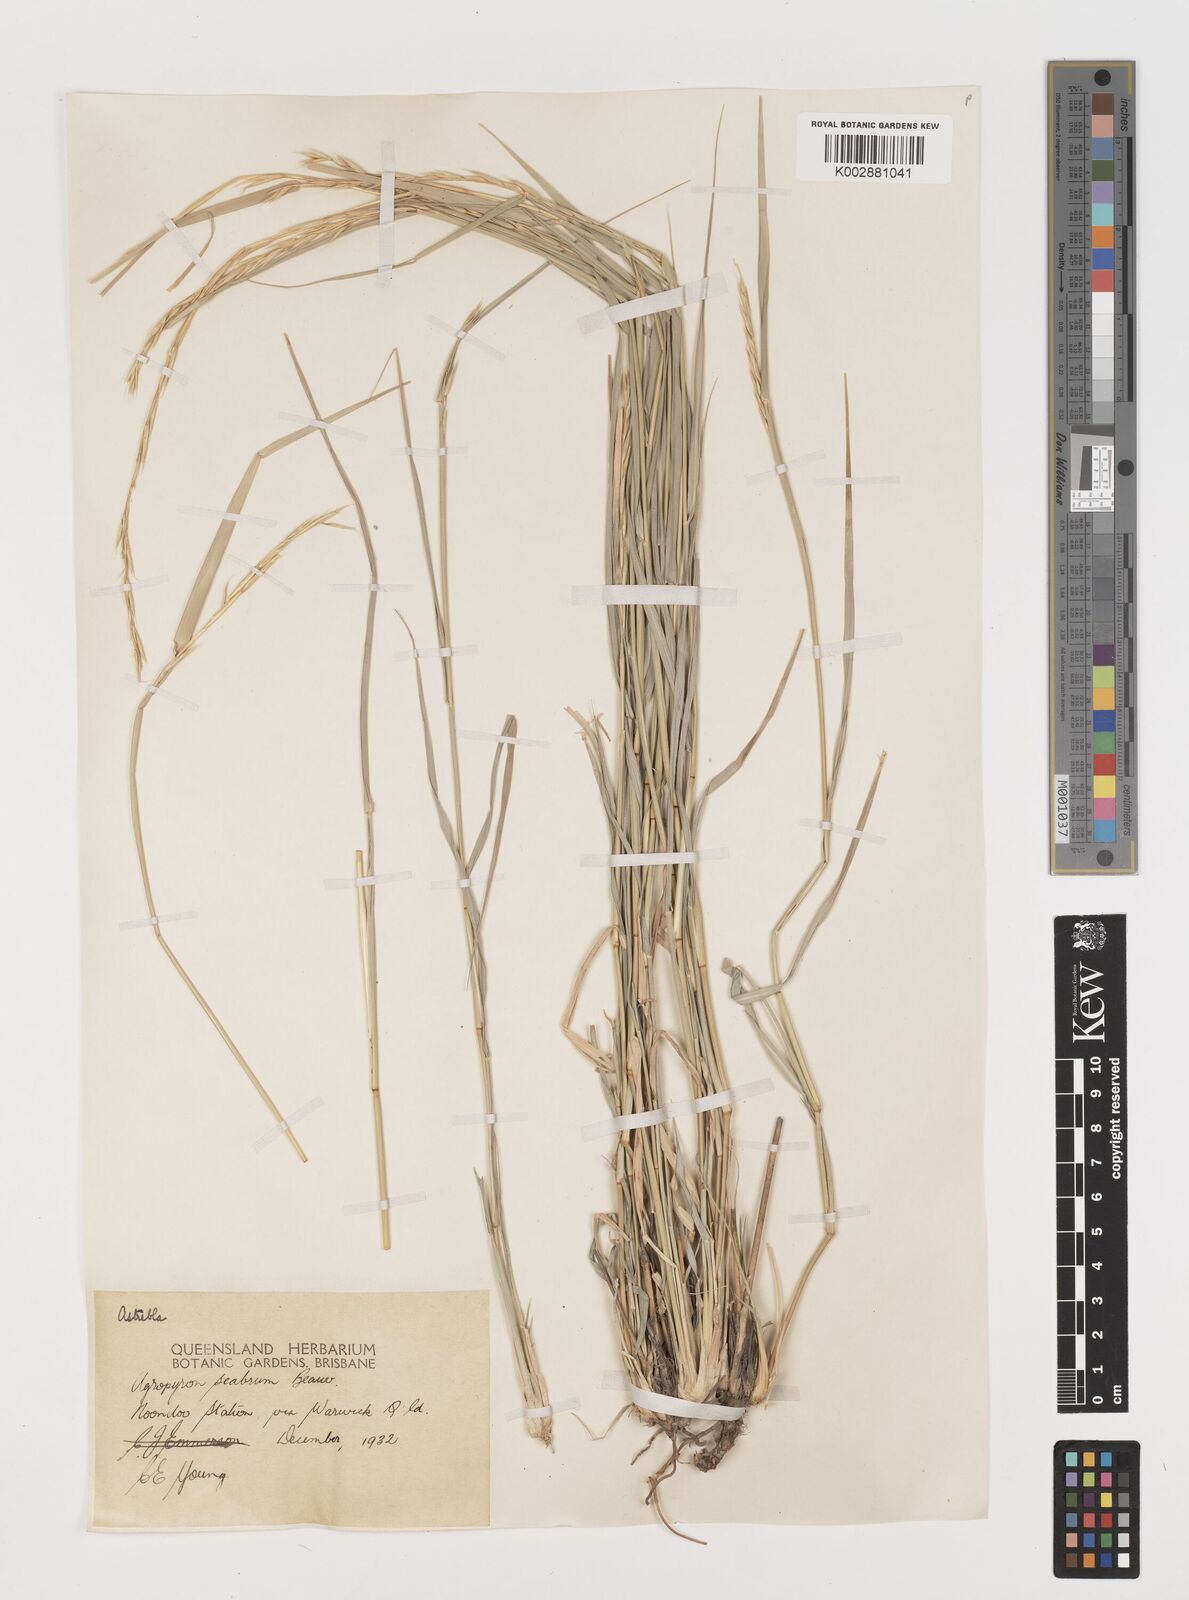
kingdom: Plantae
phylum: Tracheophyta
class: Liliopsida
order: Poales
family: Poaceae
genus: Astrebla
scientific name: Astrebla elymoides
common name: Hoop mitchell grass
